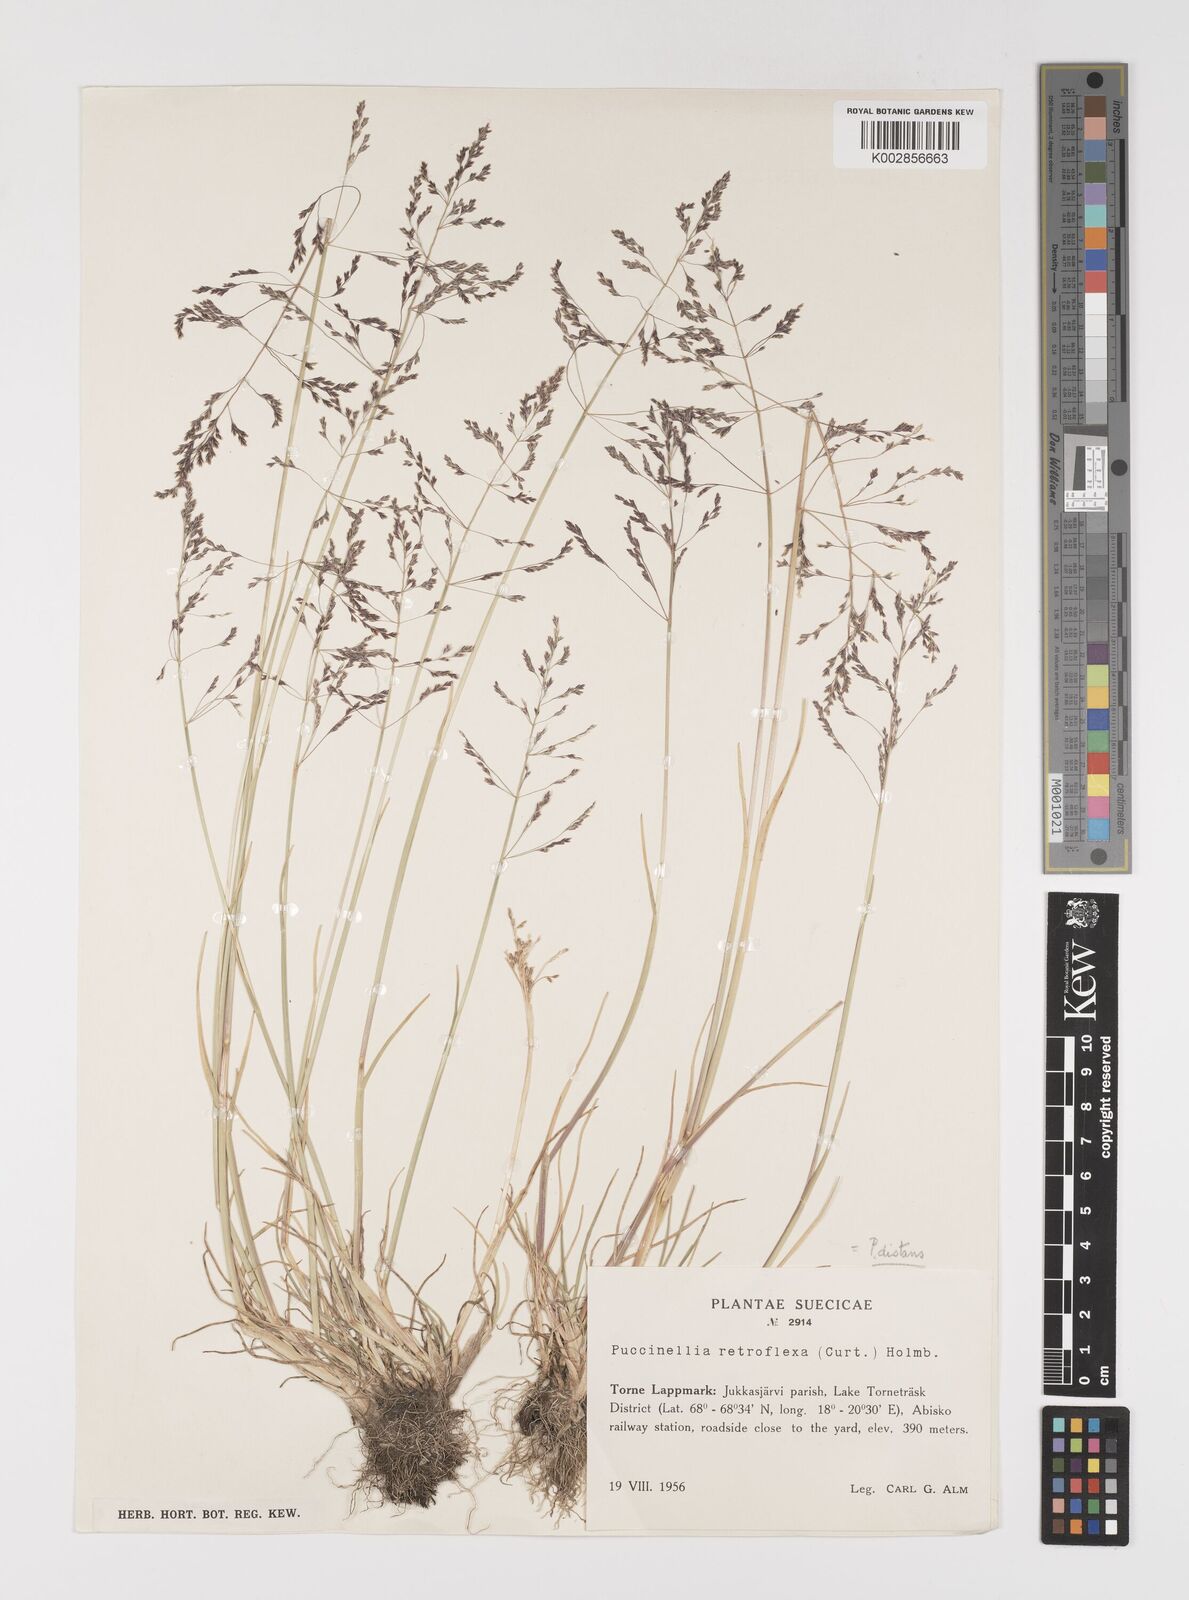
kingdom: Plantae
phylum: Tracheophyta
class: Liliopsida
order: Poales
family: Poaceae
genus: Puccinellia
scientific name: Puccinellia
